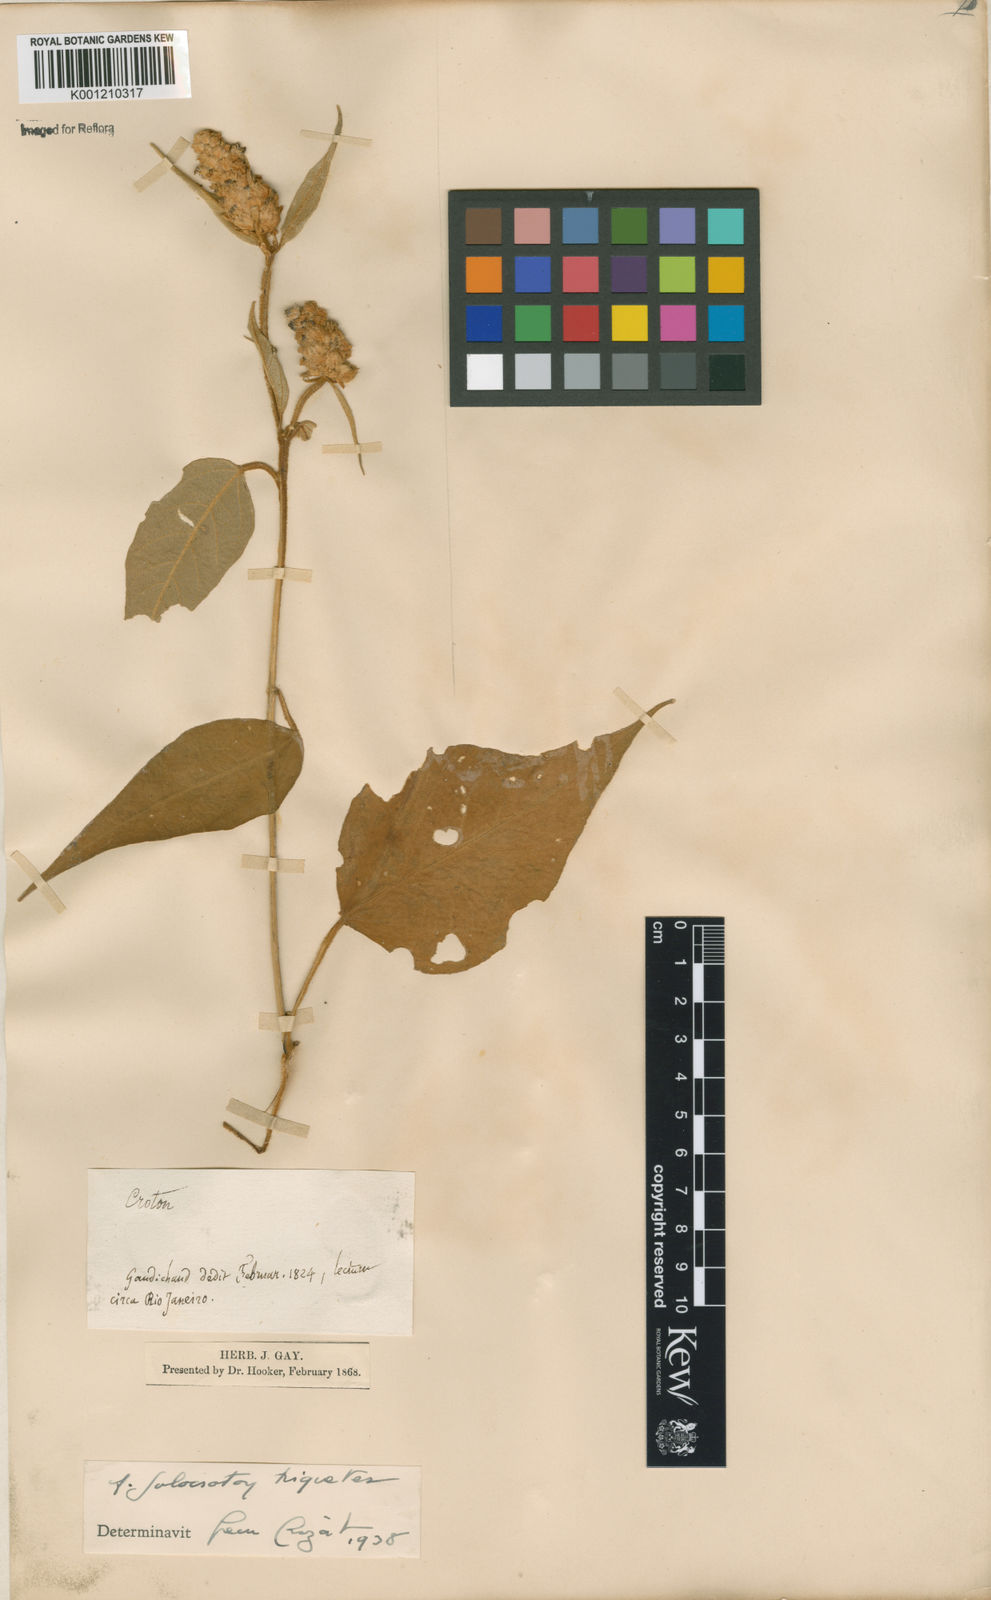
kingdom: Plantae
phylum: Tracheophyta
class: Magnoliopsida
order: Malpighiales
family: Euphorbiaceae
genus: Croton
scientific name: Croton triqueter
